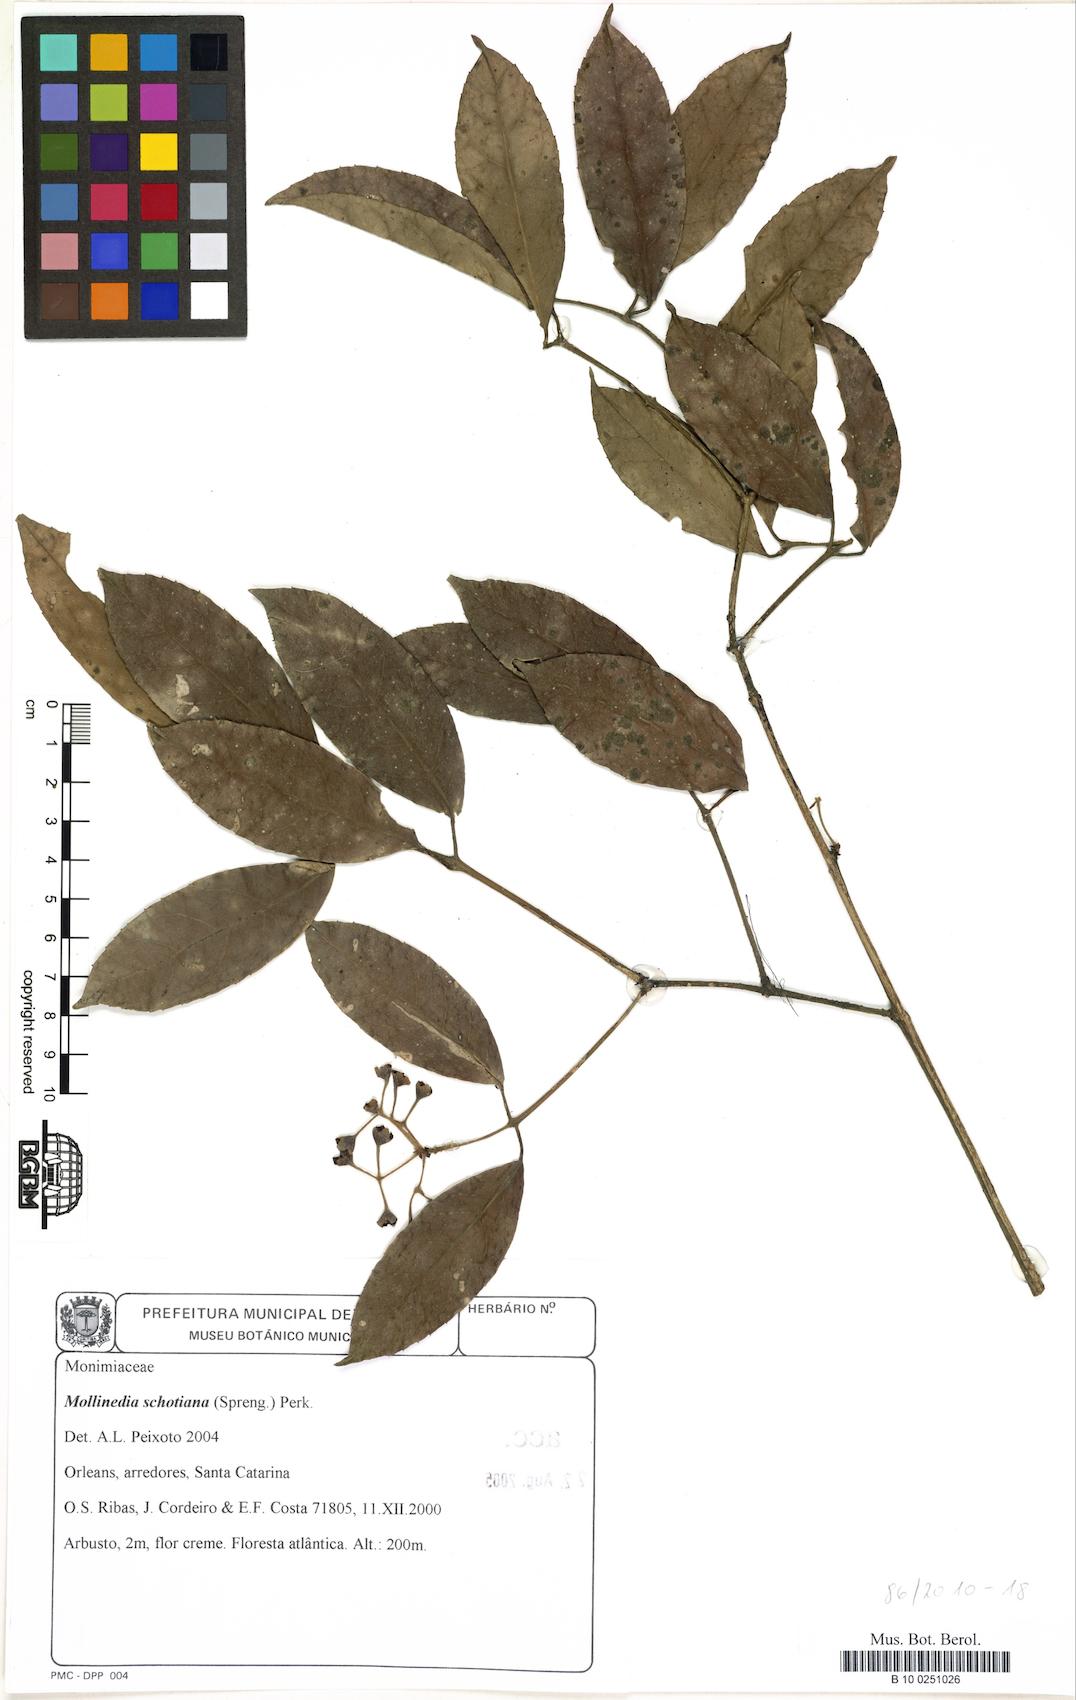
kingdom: Plantae
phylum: Tracheophyta
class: Magnoliopsida
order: Laurales
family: Monimiaceae
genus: Mollinedia
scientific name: Mollinedia umbellata
